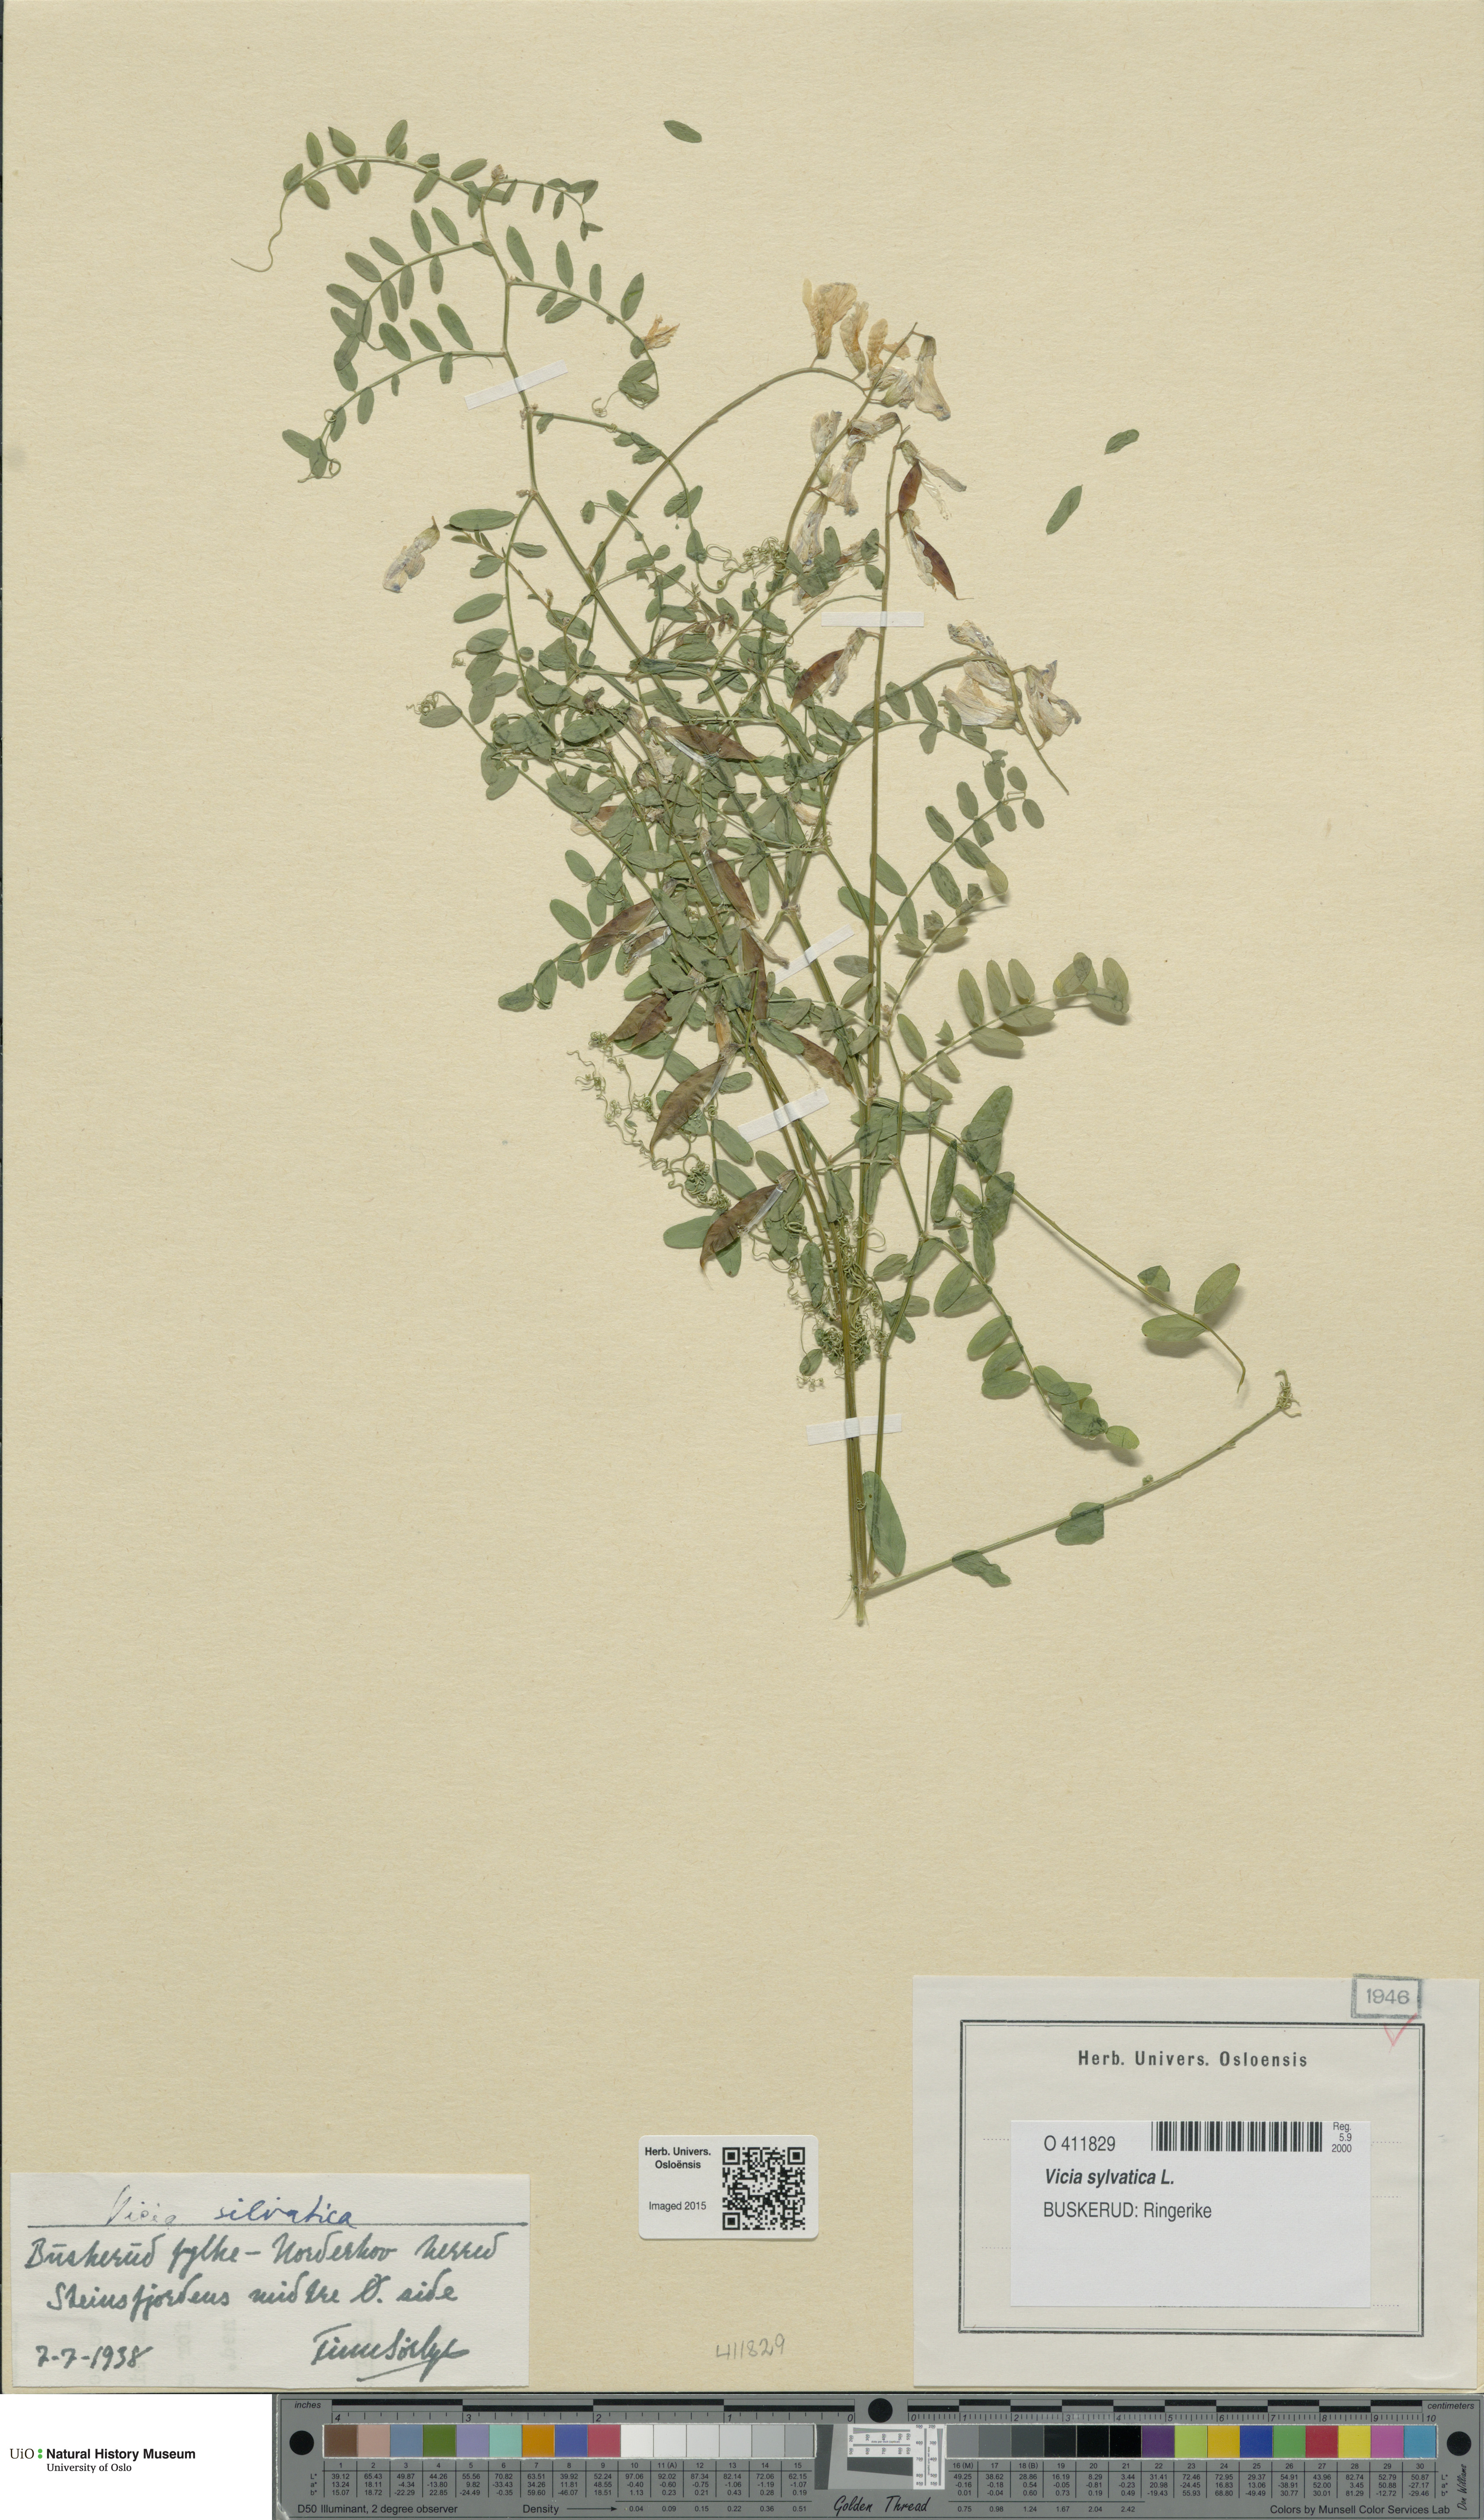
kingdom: Plantae
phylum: Tracheophyta
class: Magnoliopsida
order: Fabales
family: Fabaceae
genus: Vicia
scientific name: Vicia sylvatica
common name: Wood vetch
